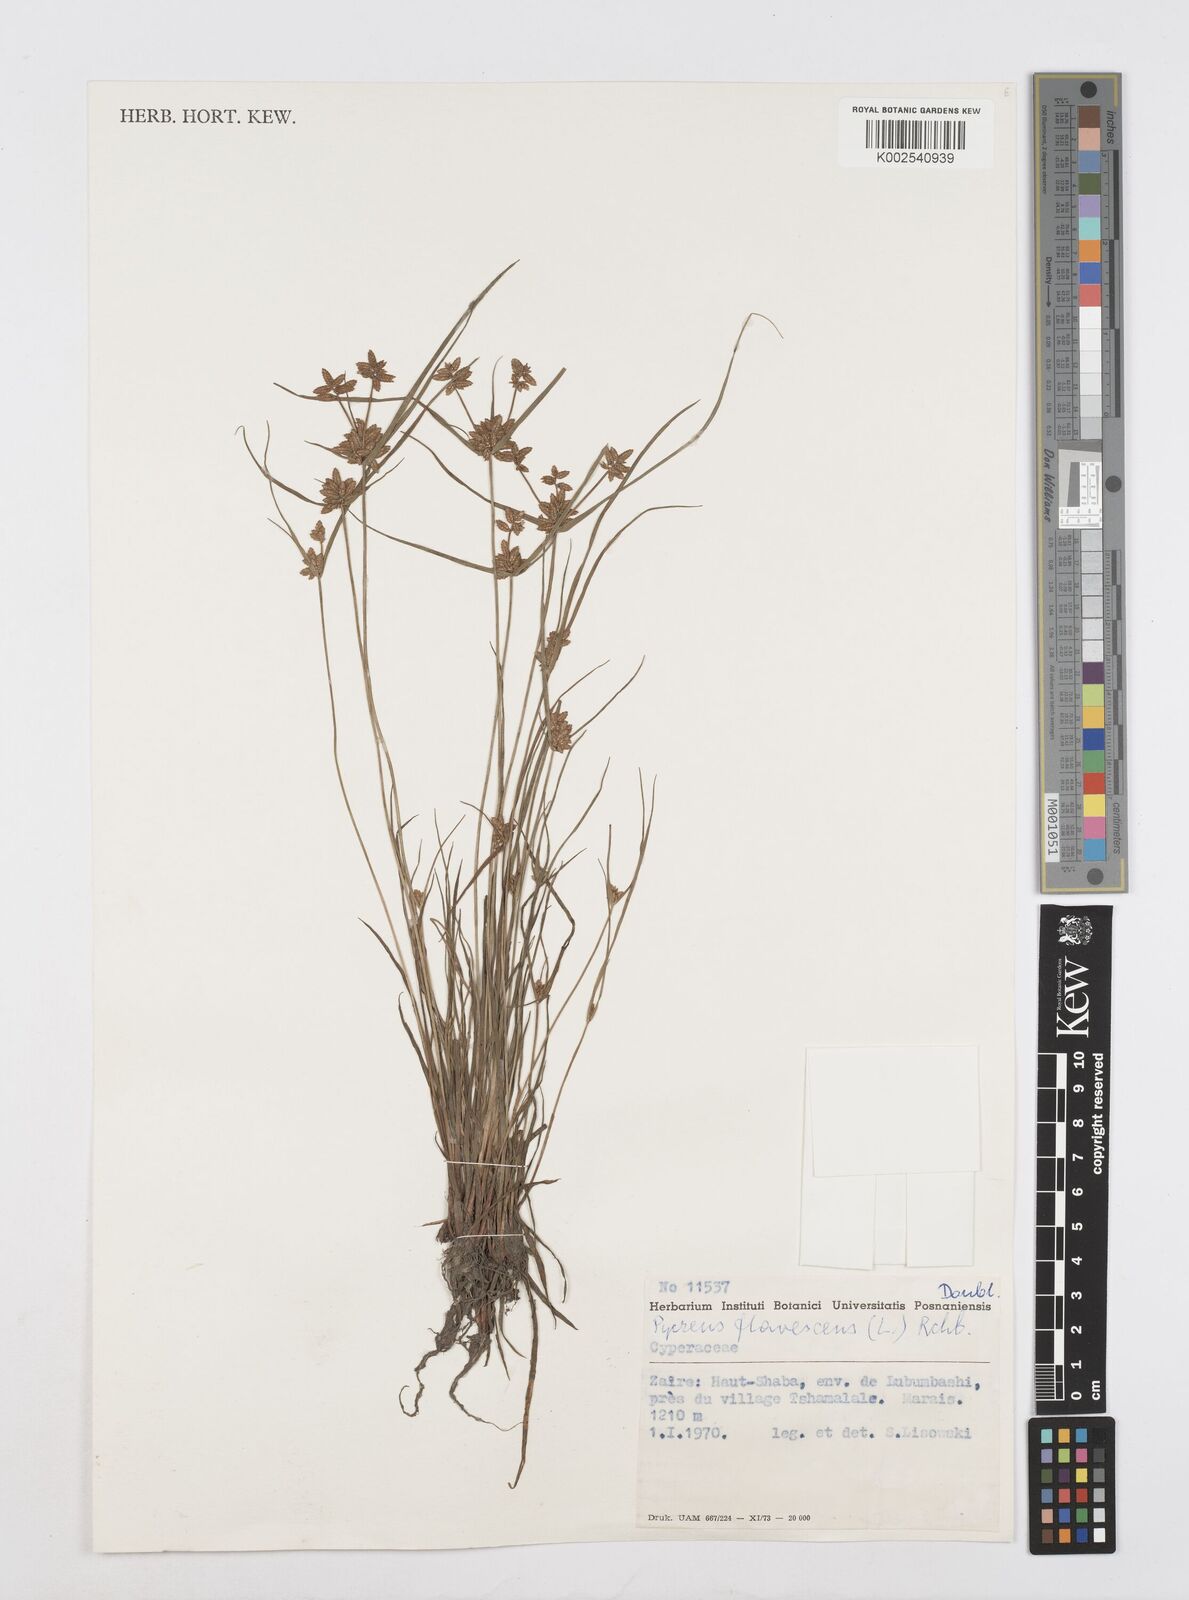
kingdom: Plantae
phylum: Tracheophyta
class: Liliopsida
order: Poales
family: Cyperaceae
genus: Cyperus
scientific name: Cyperus flavescens
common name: Yellow galingale
